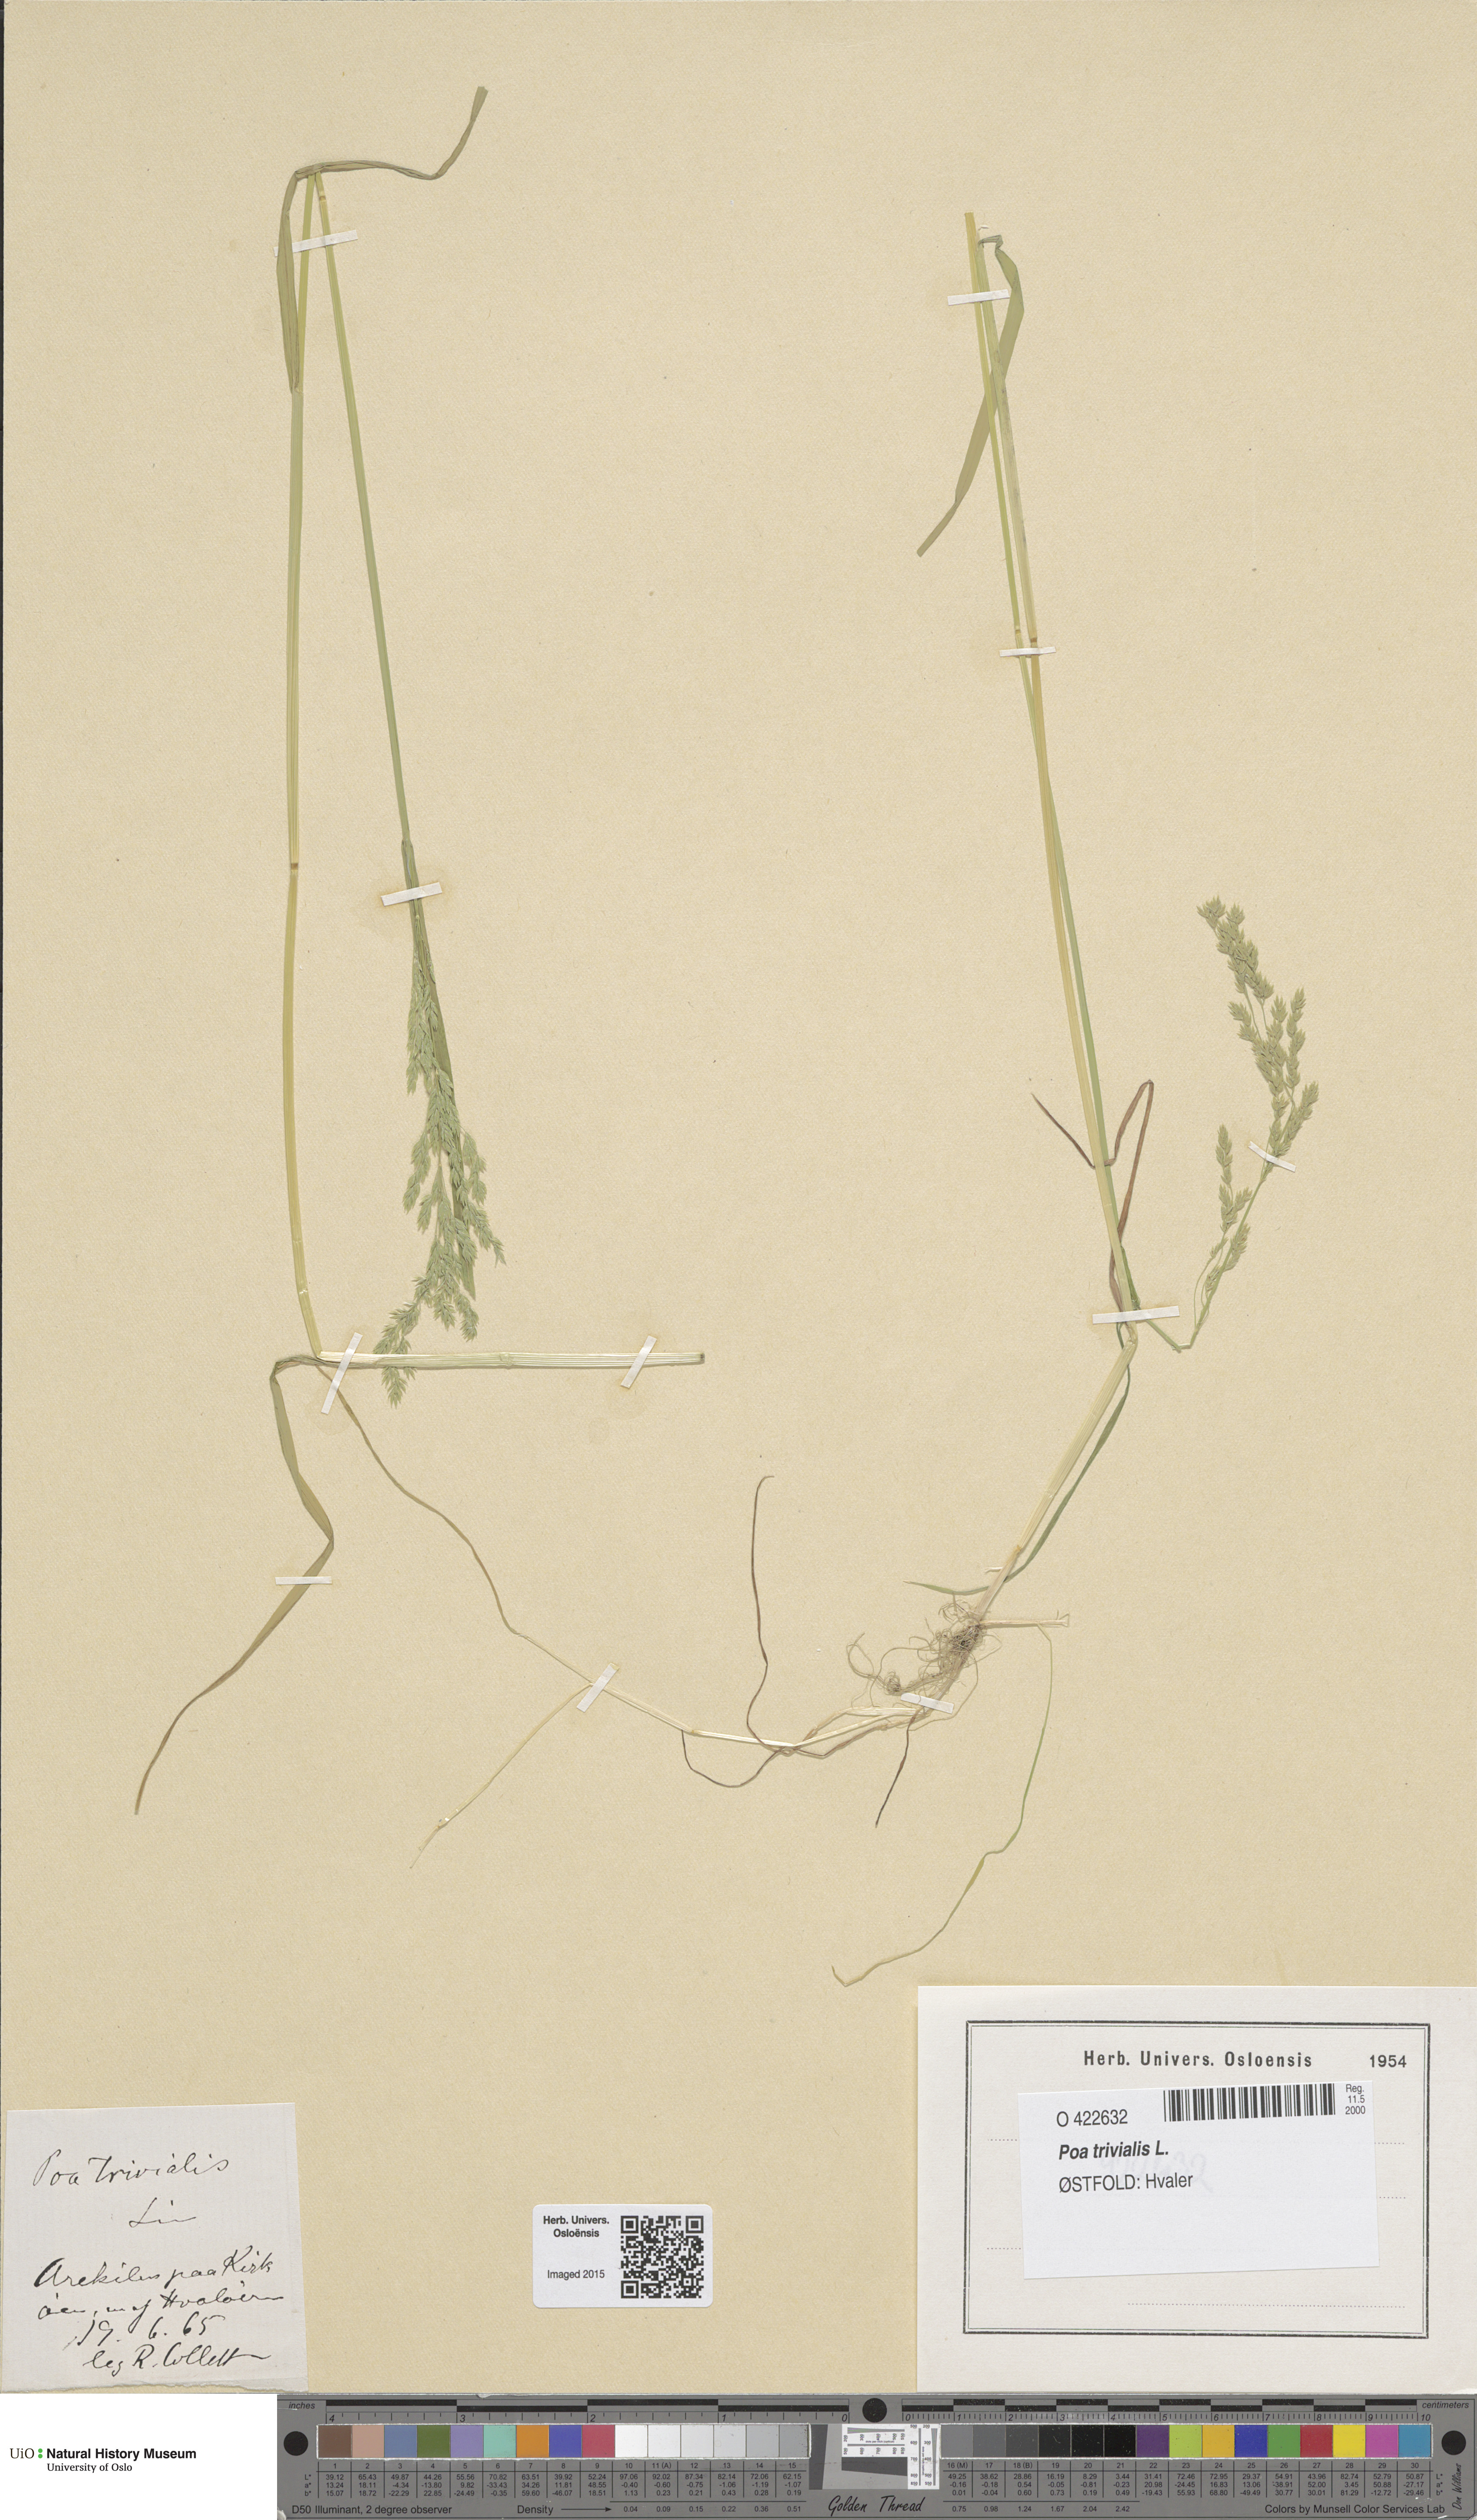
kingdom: Plantae
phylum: Tracheophyta
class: Liliopsida
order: Poales
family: Poaceae
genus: Poa
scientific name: Poa trivialis
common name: Rough bluegrass
